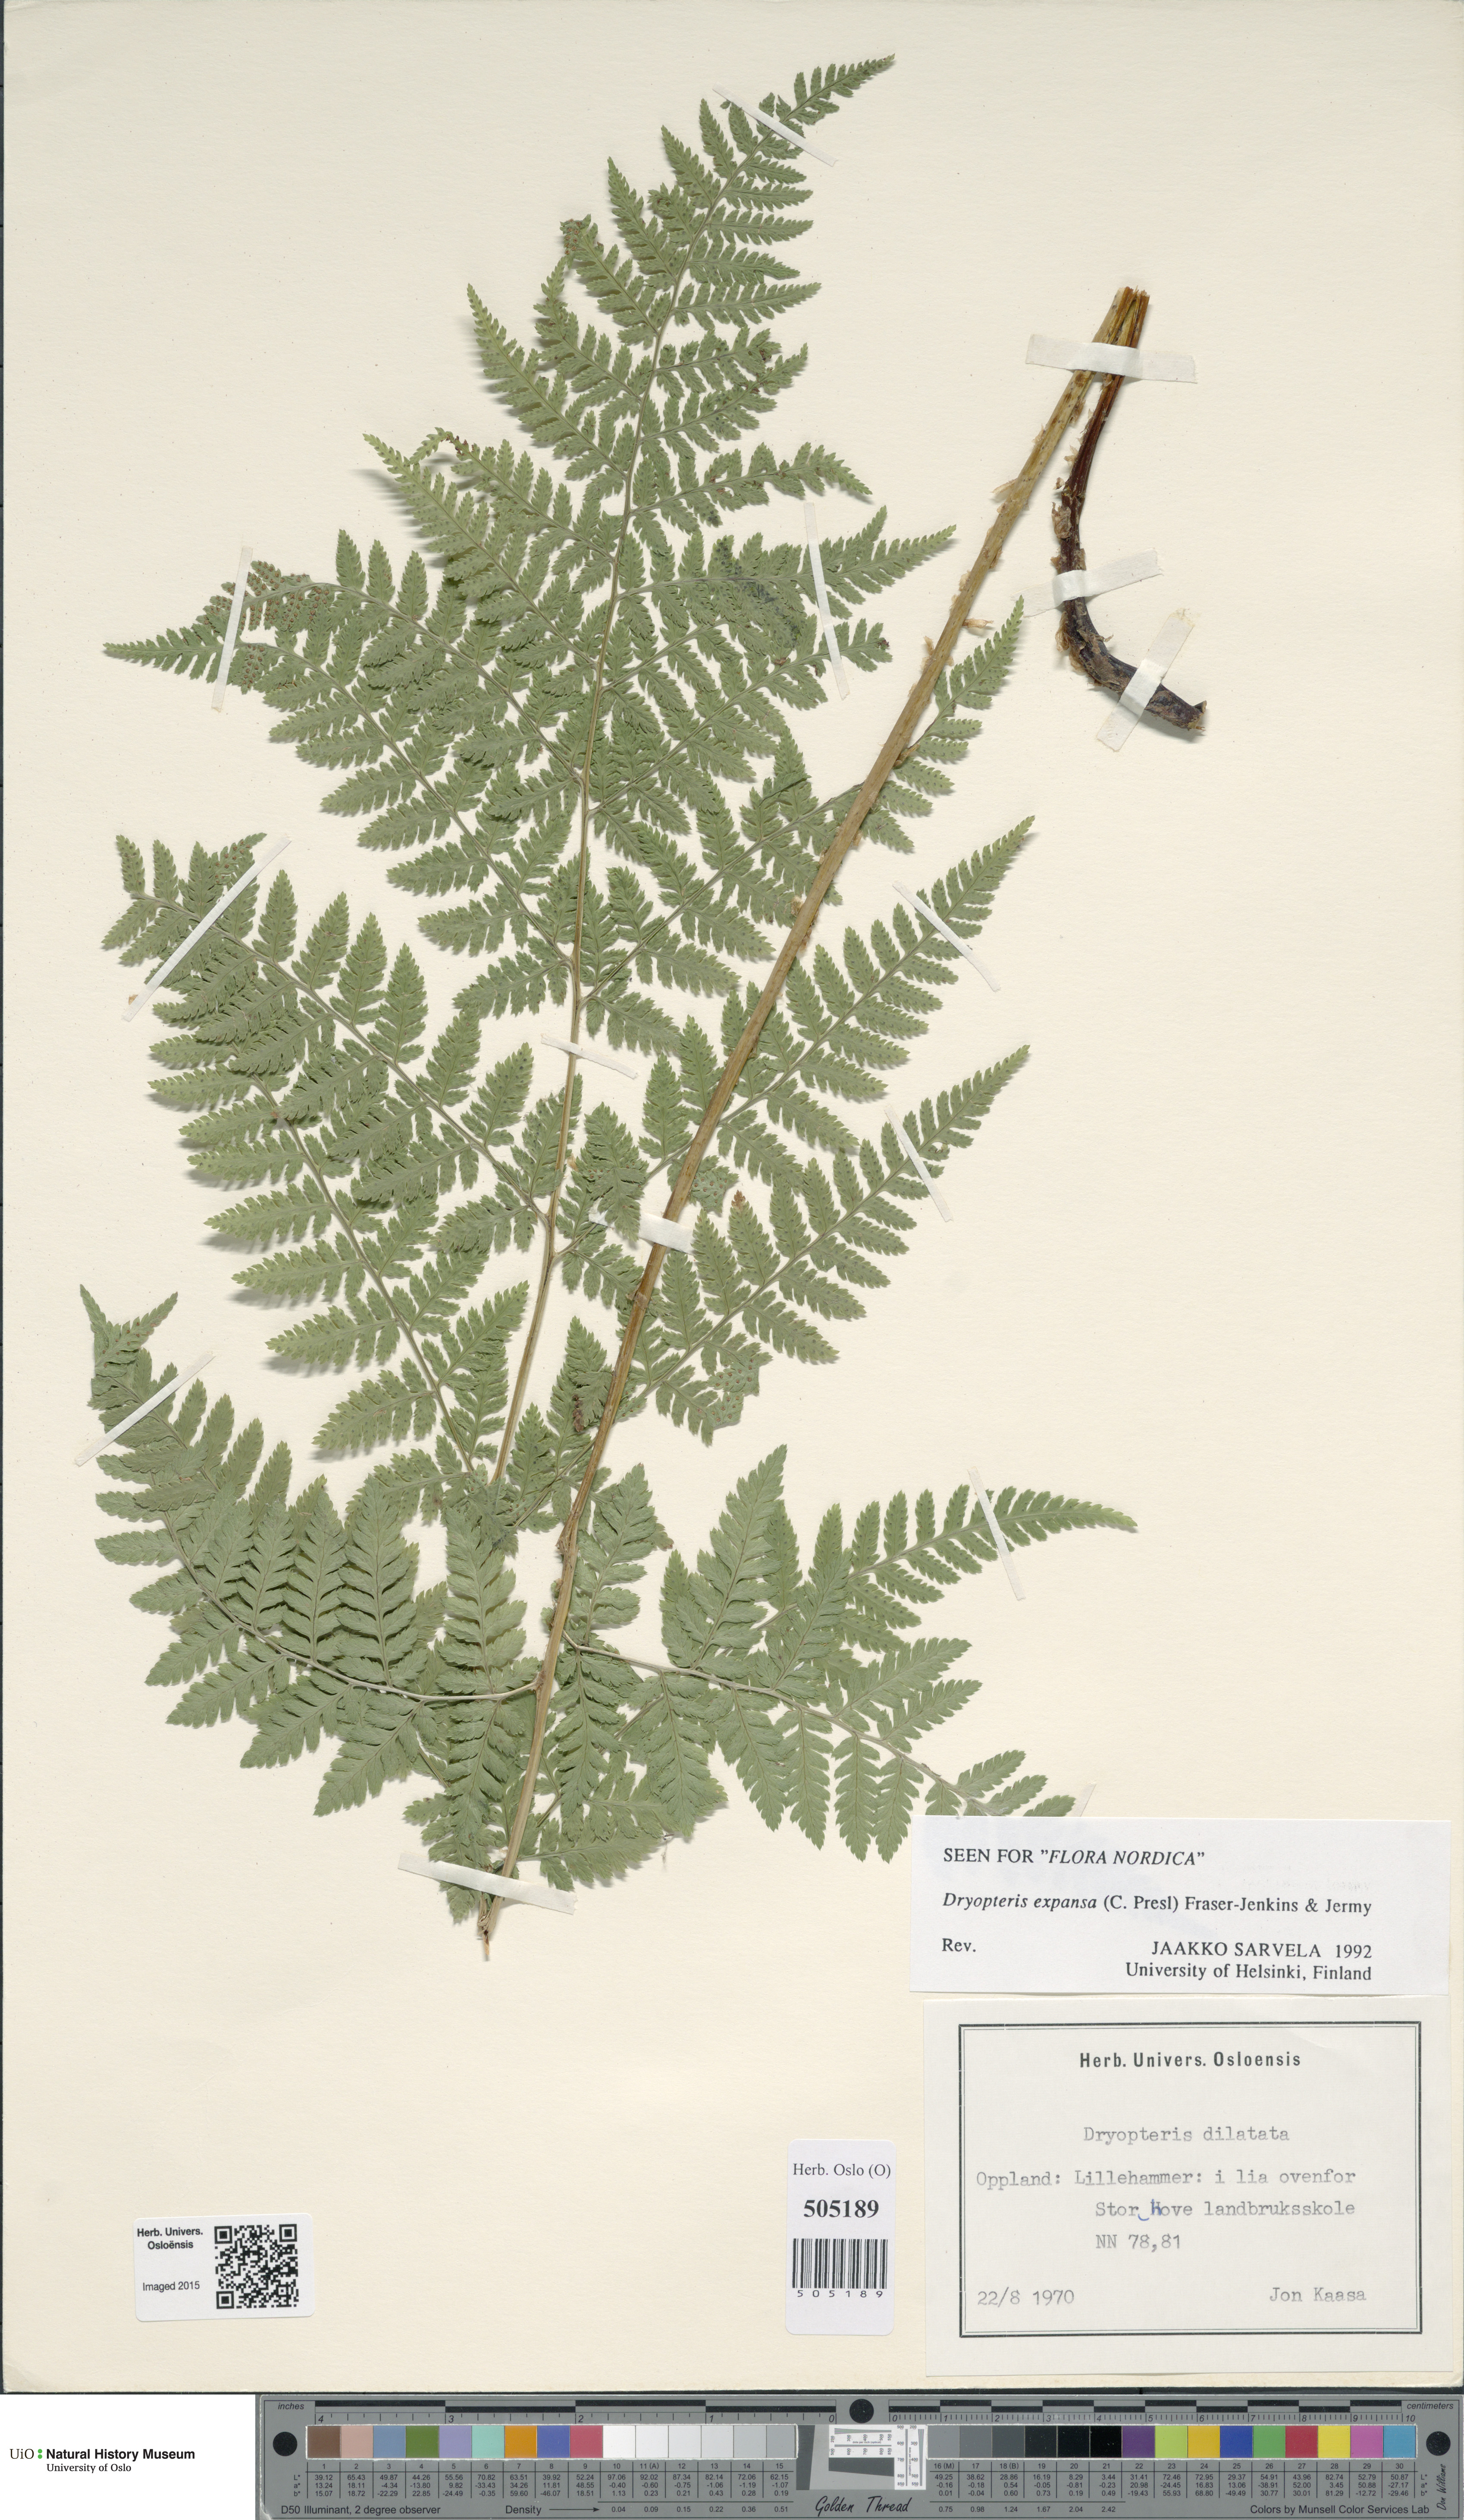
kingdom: Plantae
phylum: Tracheophyta
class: Polypodiopsida
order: Polypodiales
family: Dryopteridaceae
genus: Dryopteris
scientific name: Dryopteris expansa
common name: Northern buckler fern
